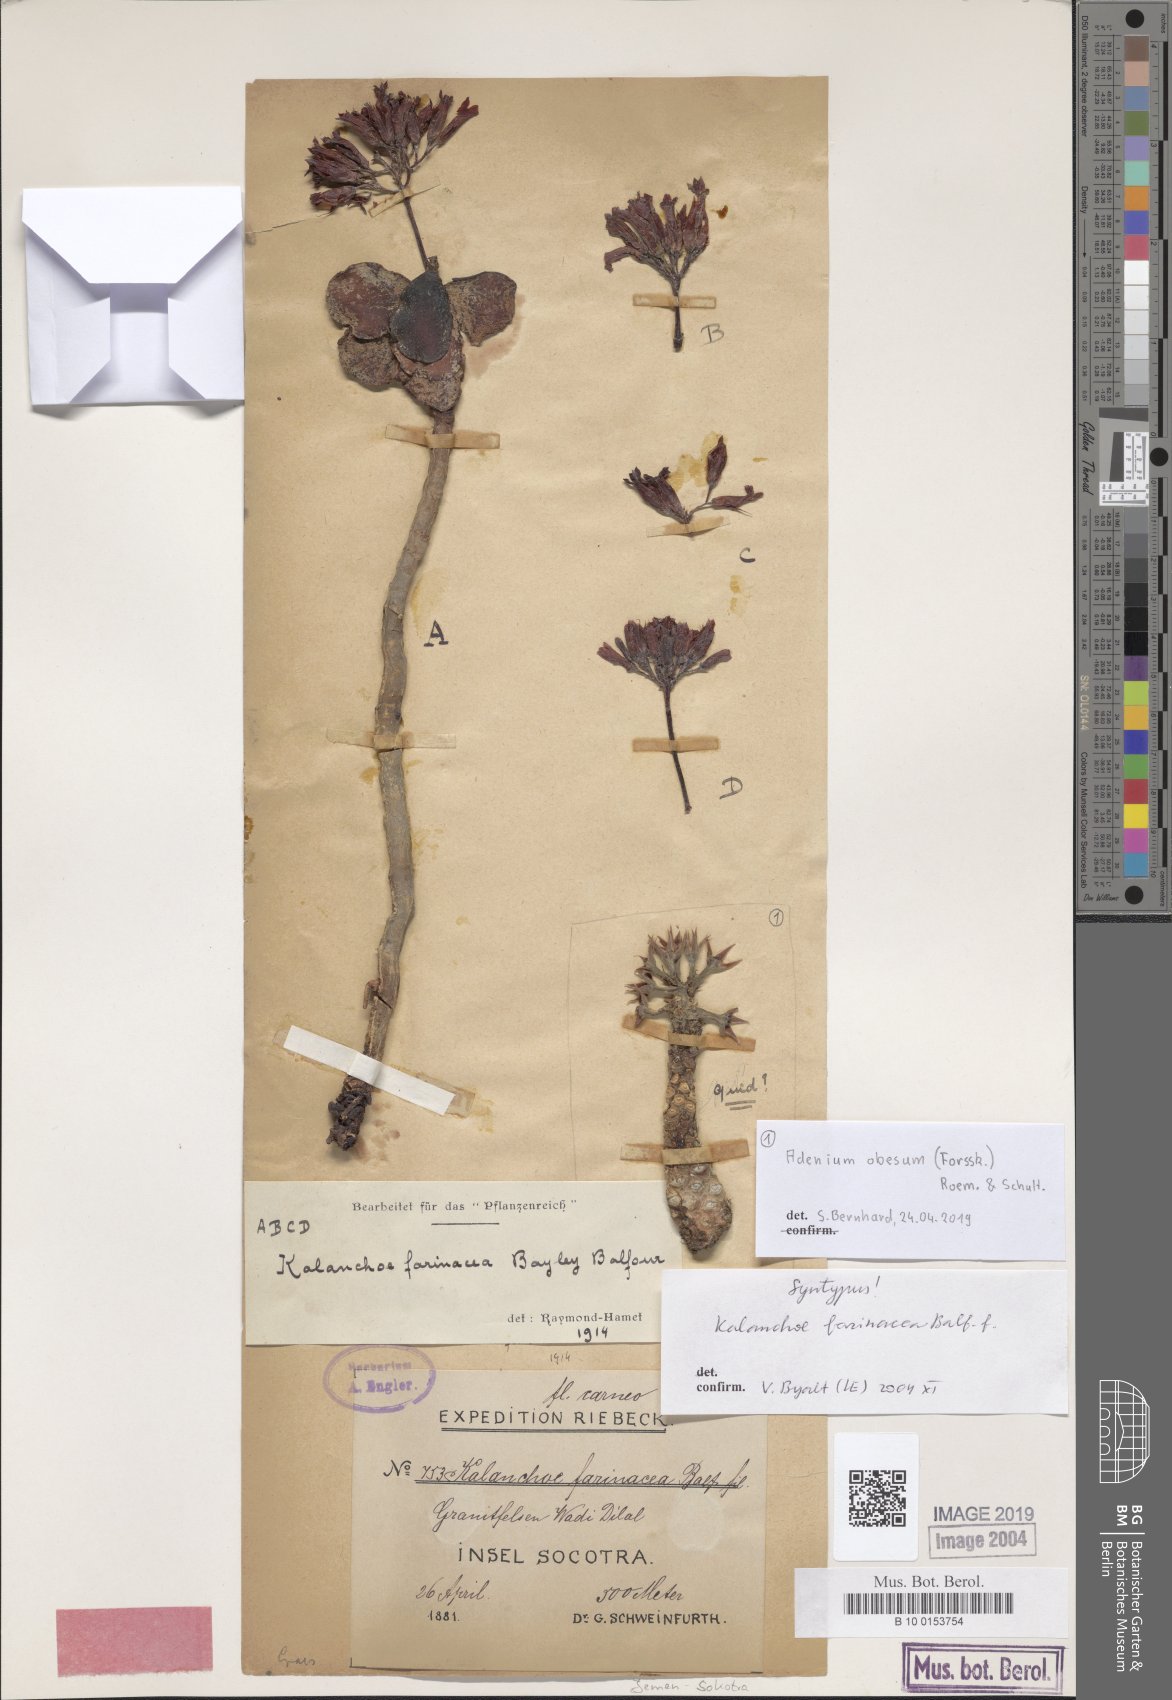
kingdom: Plantae
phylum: Tracheophyta
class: Magnoliopsida
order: Saxifragales
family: Crassulaceae
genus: Kalanchoe
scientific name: Kalanchoe farinacea
